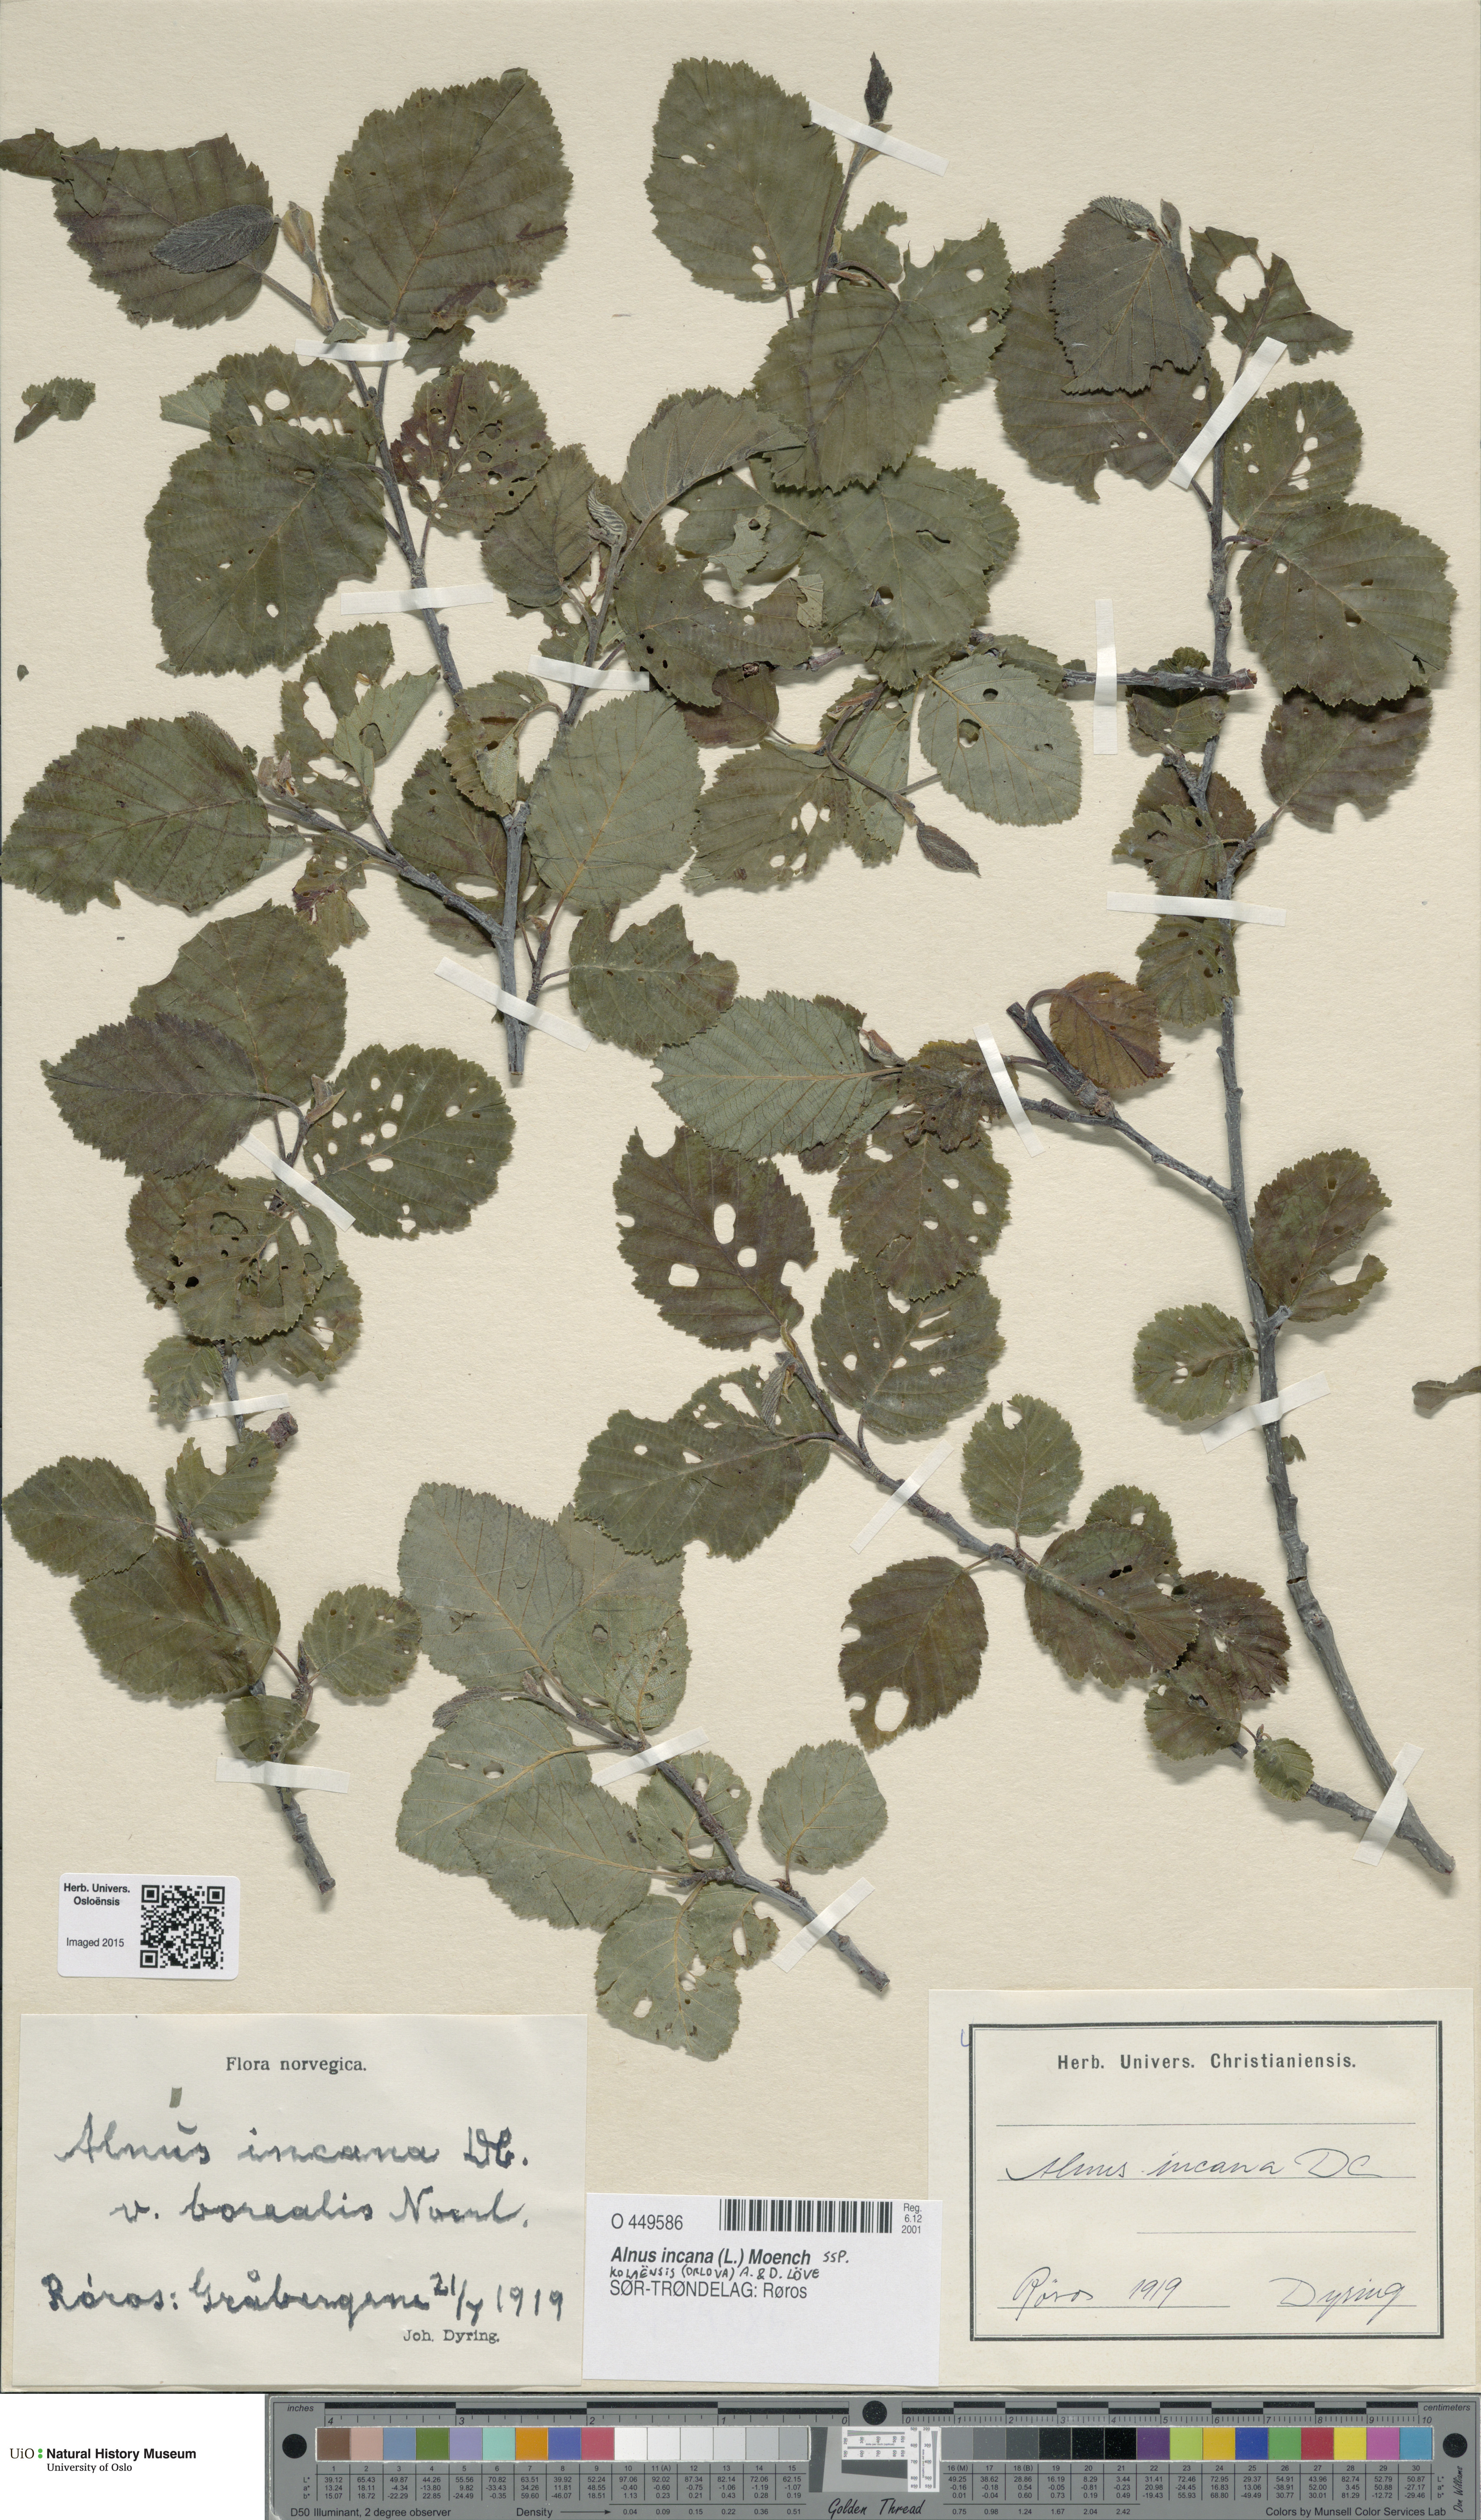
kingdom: Plantae
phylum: Tracheophyta
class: Magnoliopsida
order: Fagales
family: Betulaceae
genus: Alnus
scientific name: Alnus incana
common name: Grey alder
